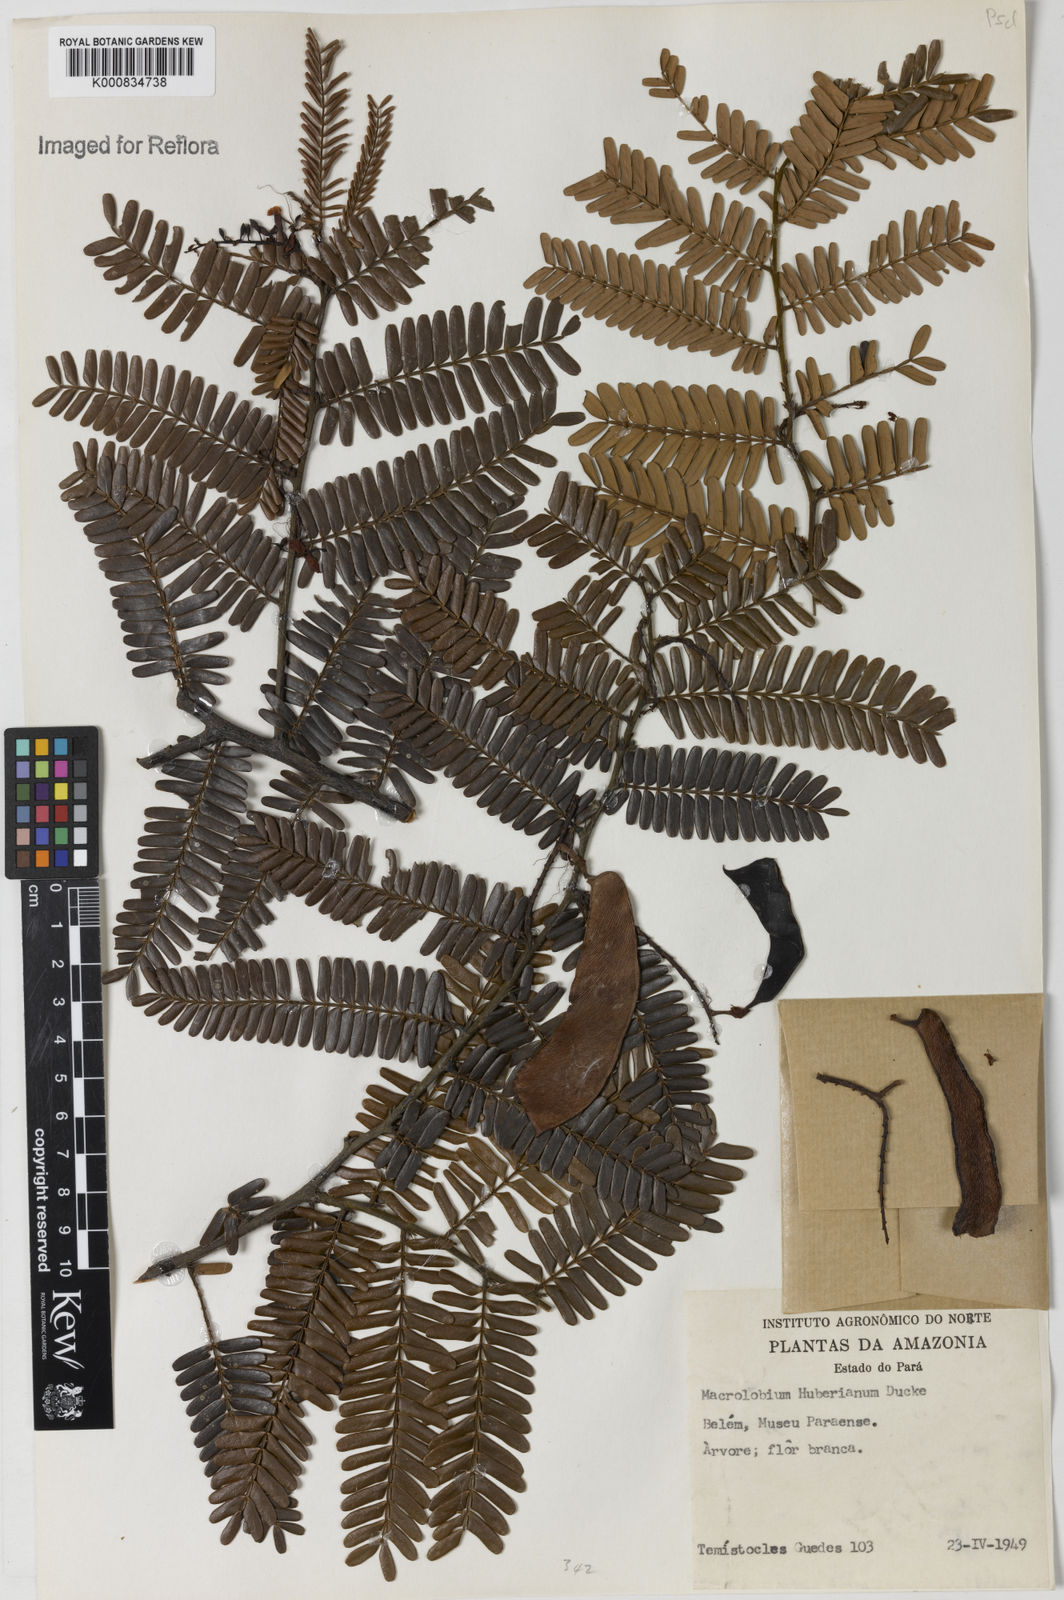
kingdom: Plantae
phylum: Tracheophyta
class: Magnoliopsida
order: Fabales
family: Fabaceae
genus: Macrolobium
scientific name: Macrolobium huberianum
